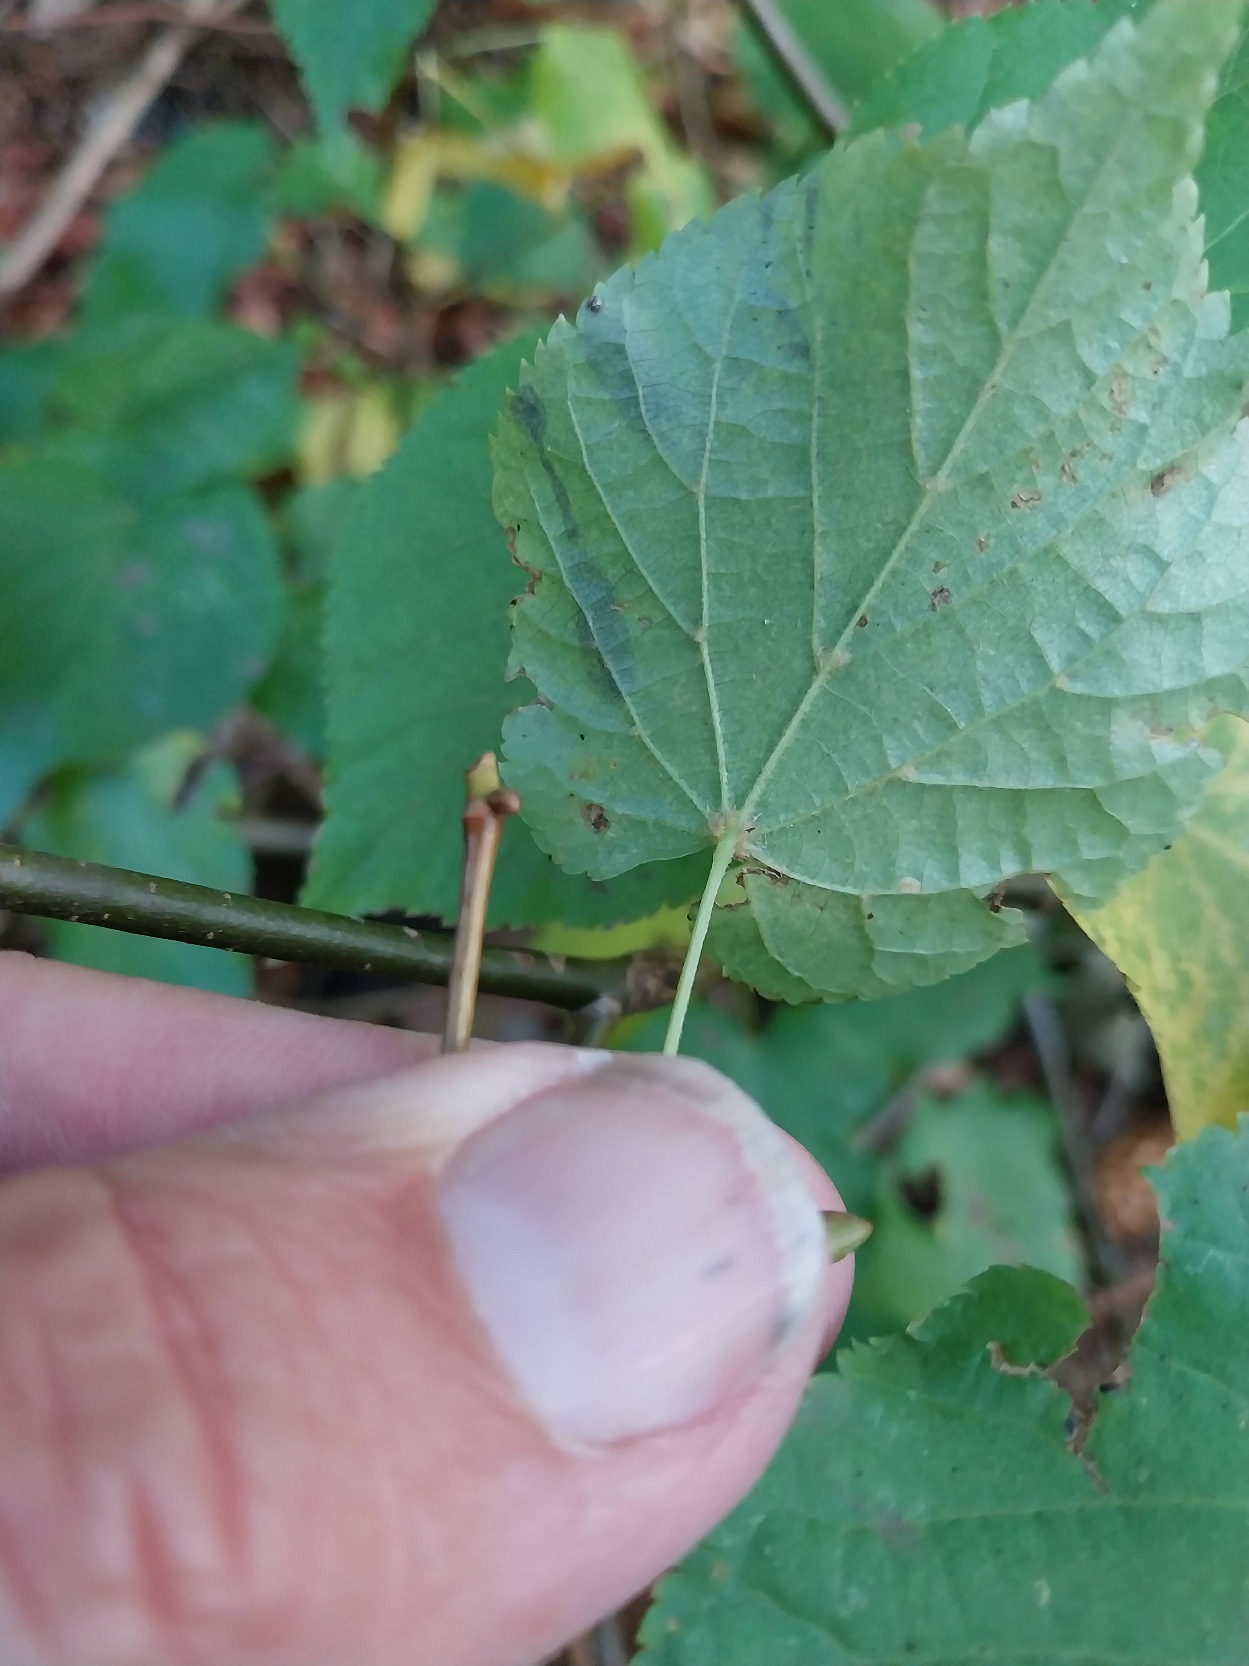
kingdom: Plantae
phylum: Tracheophyta
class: Magnoliopsida
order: Malvales
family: Malvaceae
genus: Tilia
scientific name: Tilia cordata
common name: Småbladet lind
